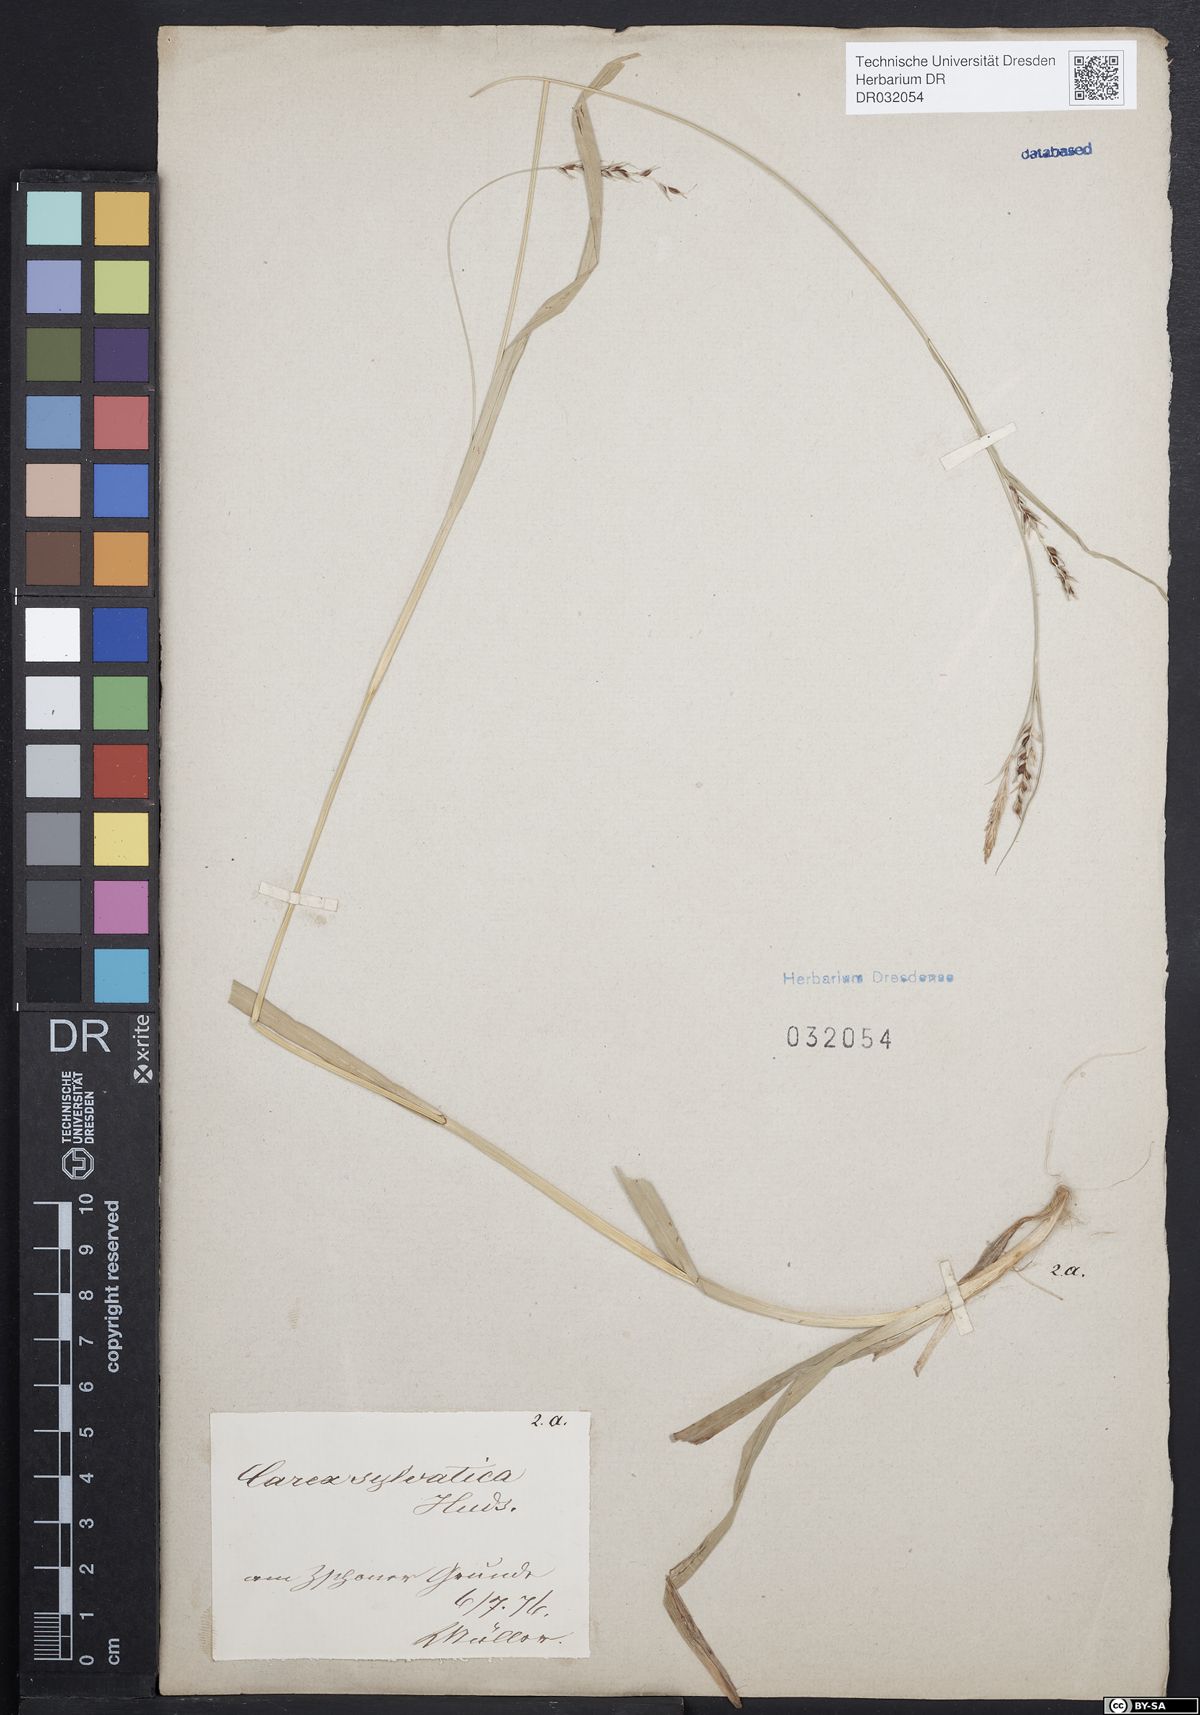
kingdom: Plantae
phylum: Tracheophyta
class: Liliopsida
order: Poales
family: Cyperaceae
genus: Carex
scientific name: Carex sylvatica
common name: Wood-sedge
